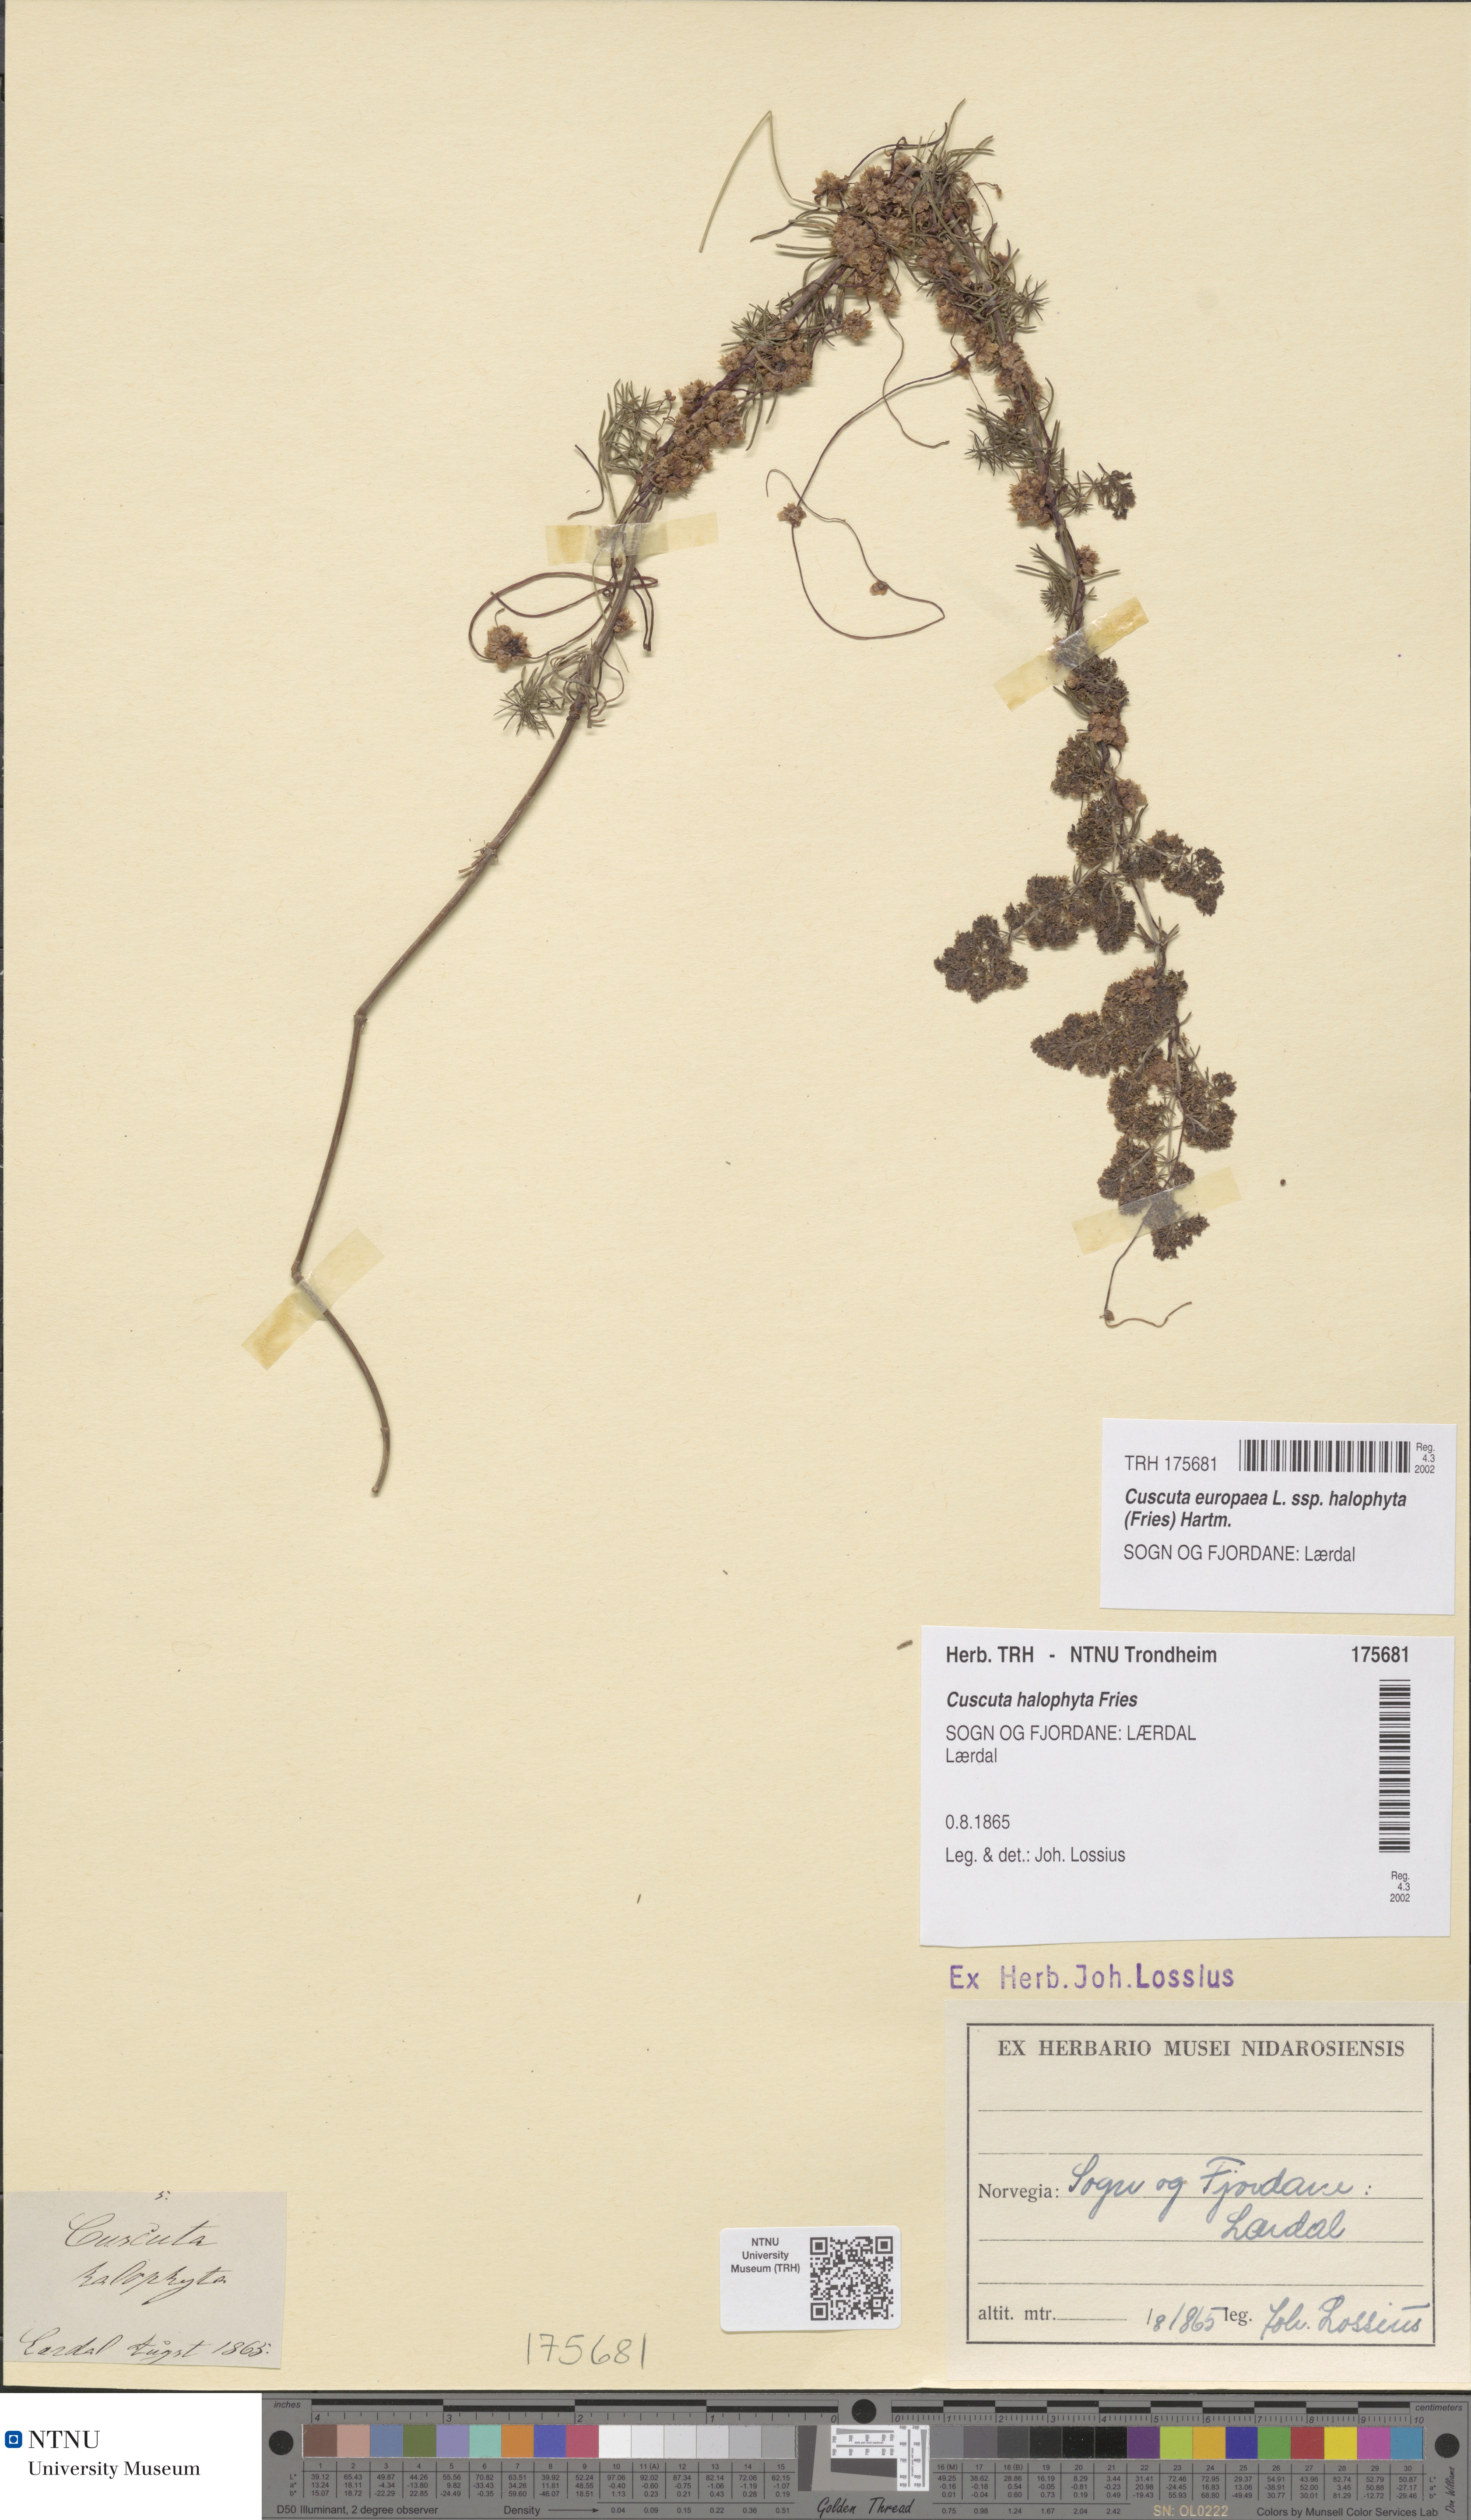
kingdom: Plantae
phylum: Tracheophyta
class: Magnoliopsida
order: Solanales
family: Convolvulaceae
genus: Cuscuta
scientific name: Cuscuta europaea
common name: Greater dodder
